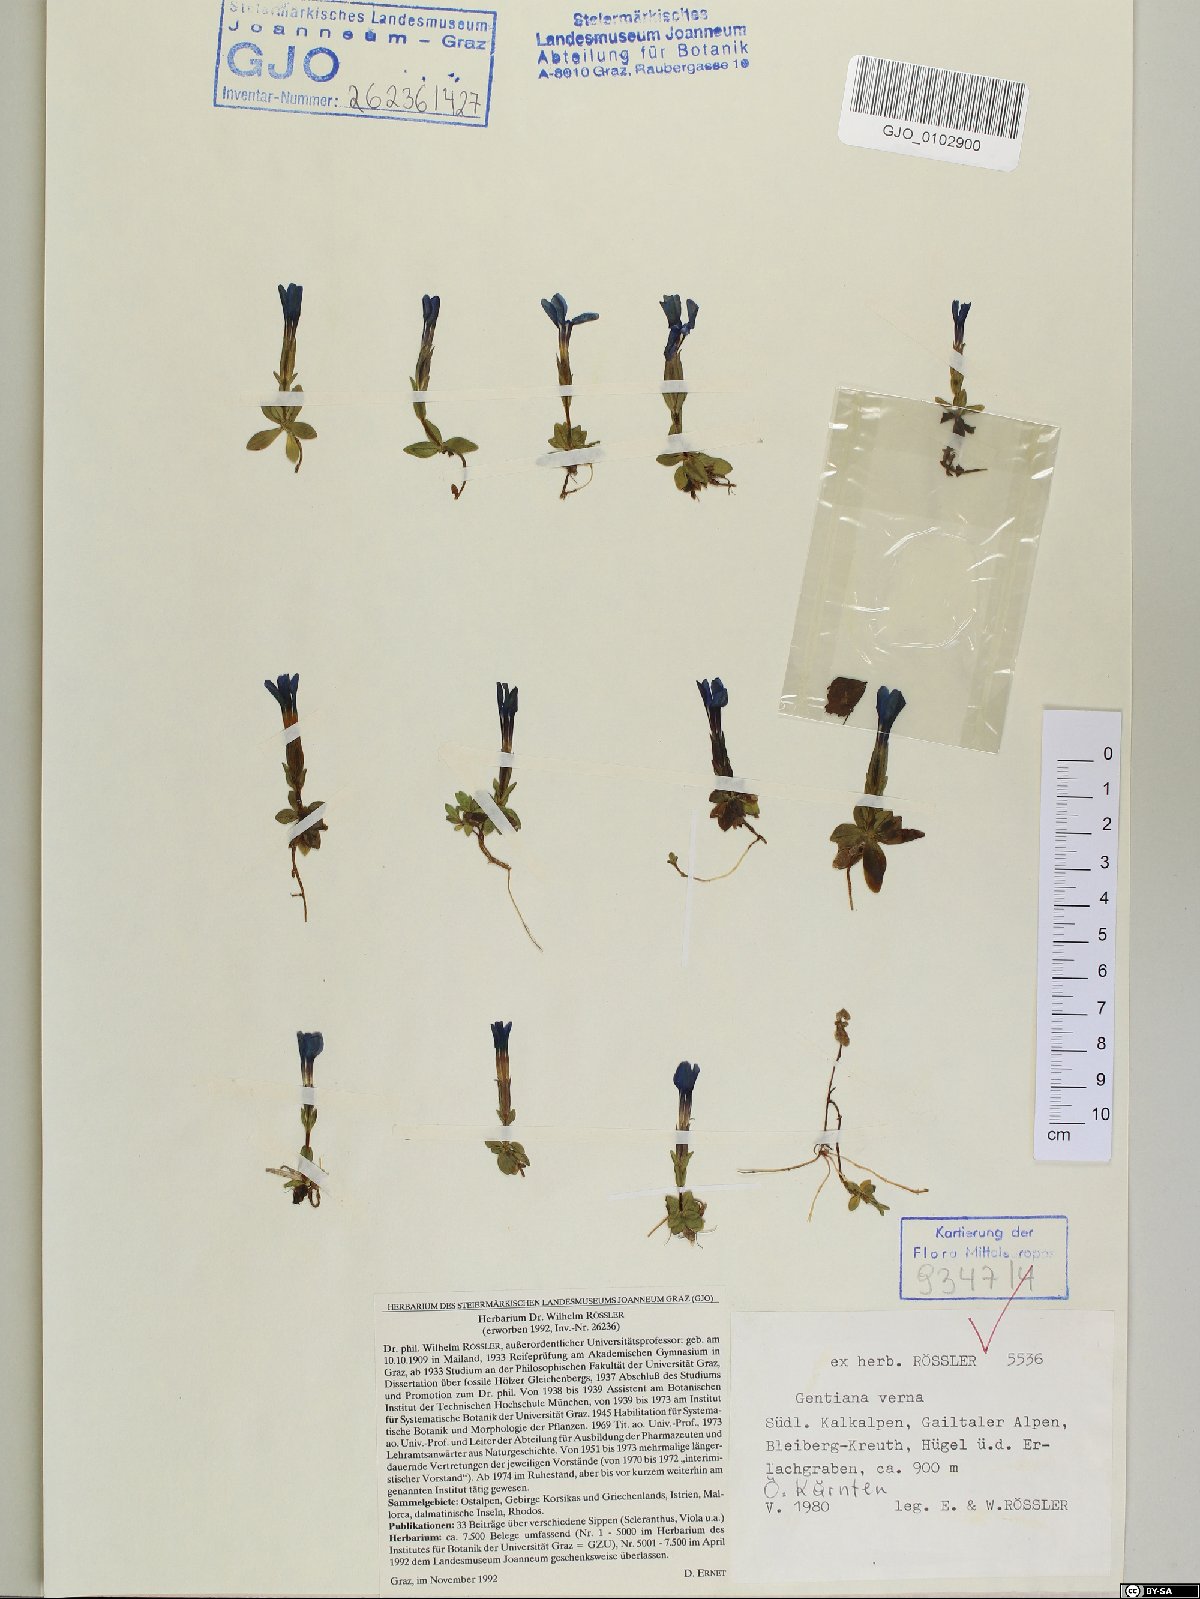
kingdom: Plantae
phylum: Tracheophyta
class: Magnoliopsida
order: Gentianales
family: Gentianaceae
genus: Gentiana
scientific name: Gentiana verna
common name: Spring gentian
